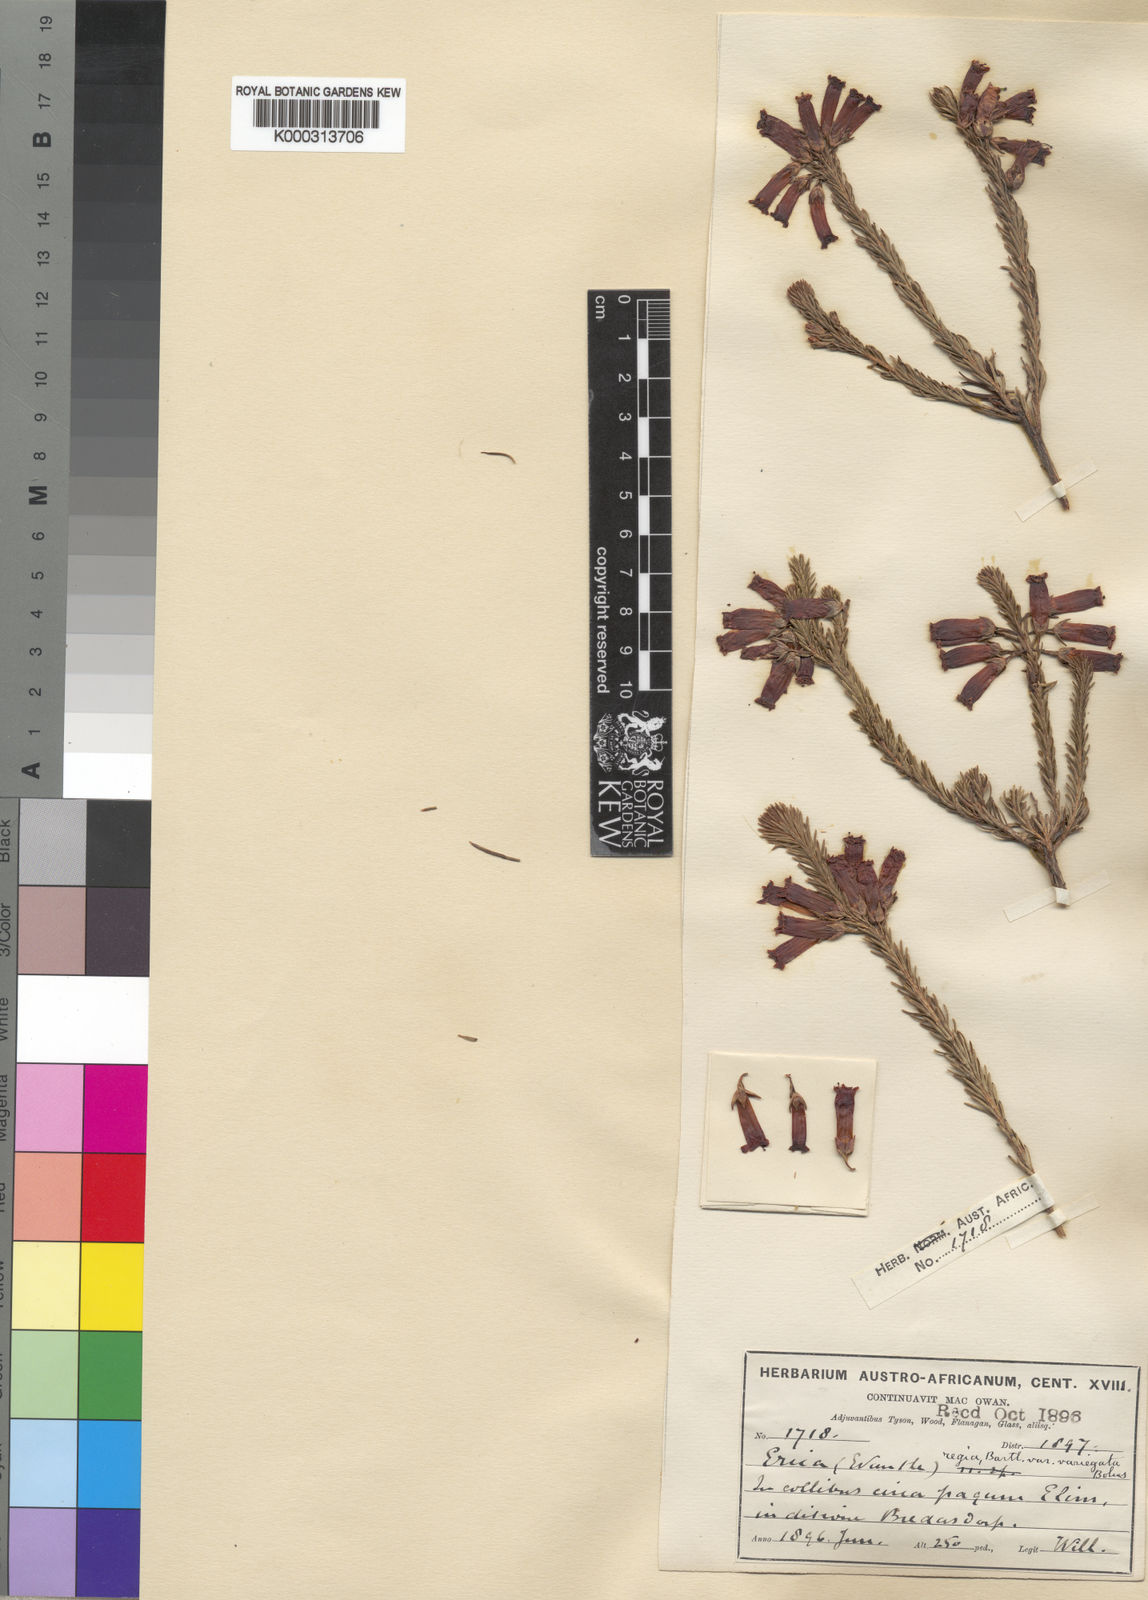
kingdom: Plantae
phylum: Tracheophyta
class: Magnoliopsida
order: Ericales
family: Ericaceae
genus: Erica
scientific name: Erica regia
